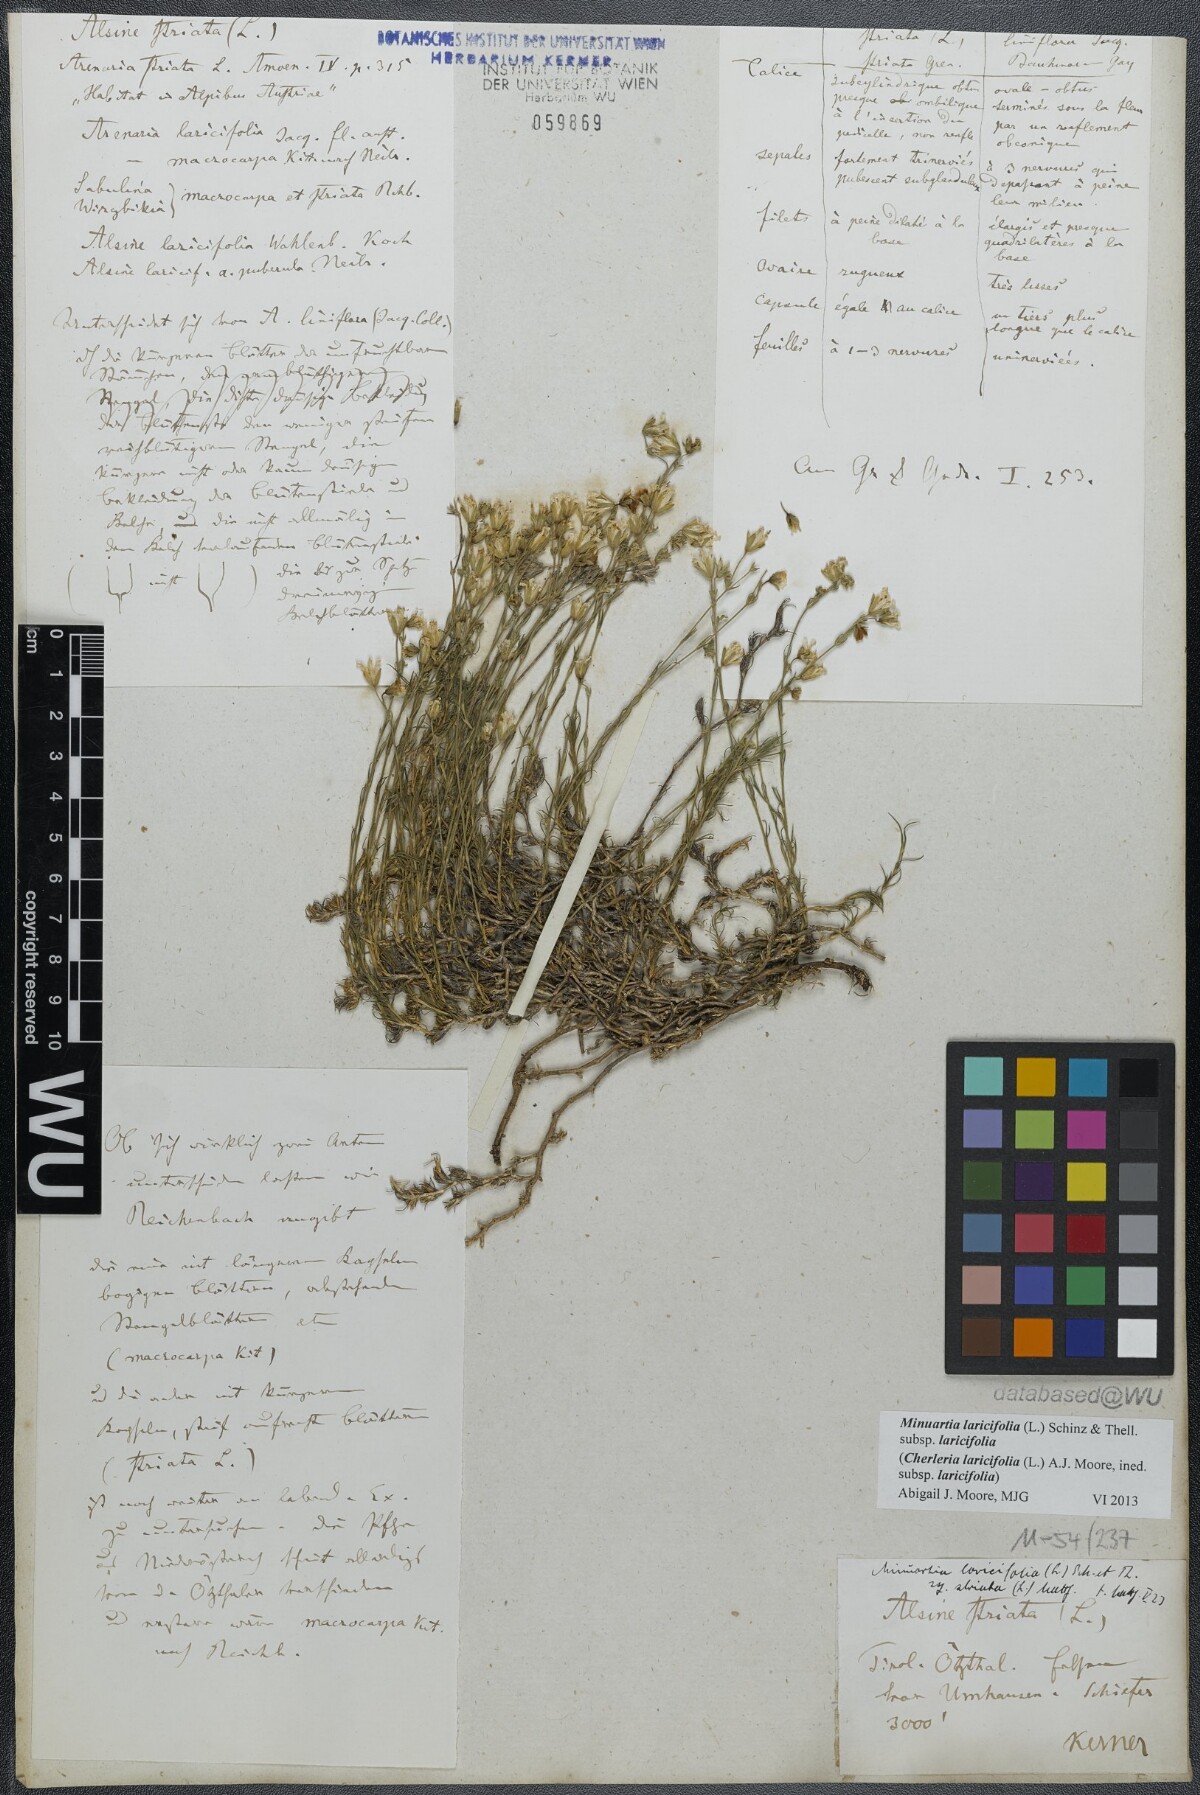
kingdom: Plantae
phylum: Tracheophyta
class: Magnoliopsida
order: Caryophyllales
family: Caryophyllaceae
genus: Cherleria
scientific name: Cherleria laricifolia
